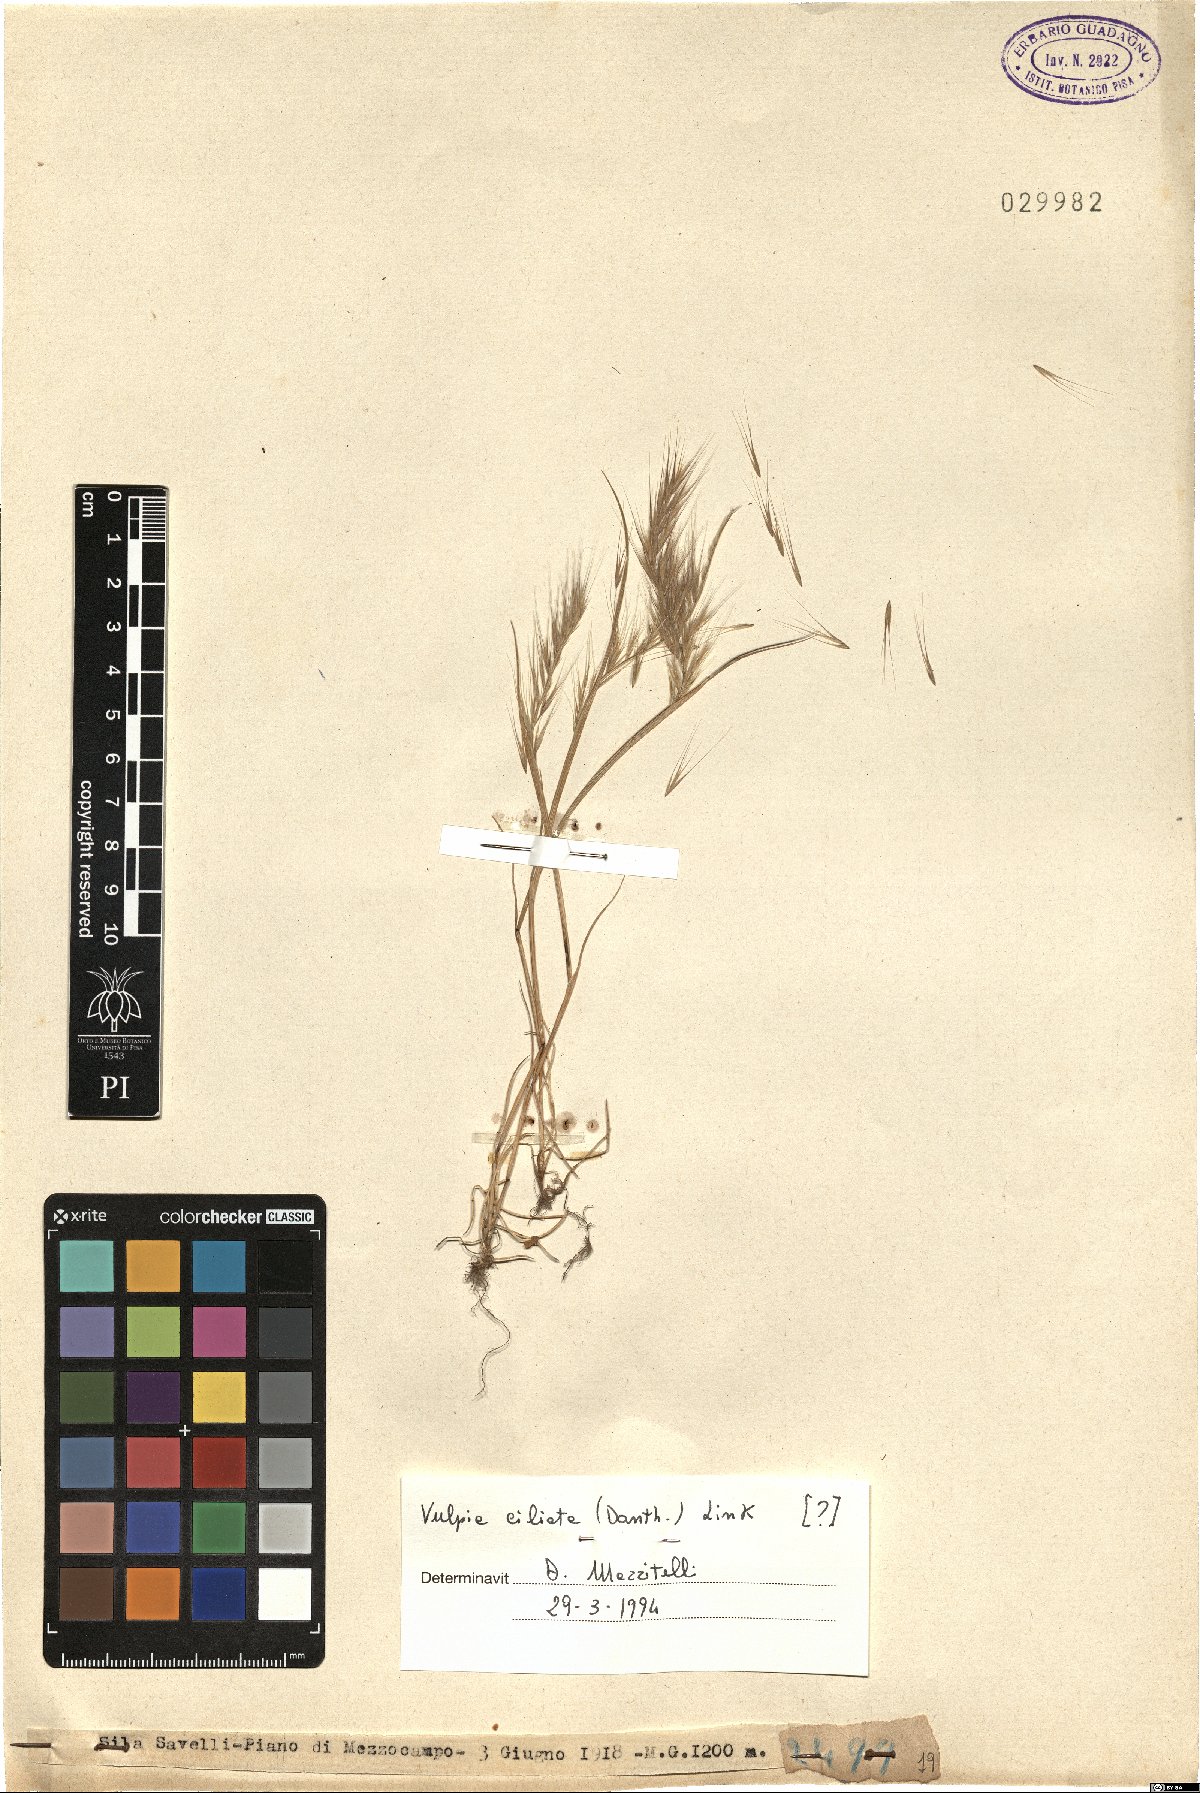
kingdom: Plantae
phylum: Tracheophyta
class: Liliopsida
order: Poales
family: Poaceae
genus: Festuca
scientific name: Festuca ambigua
